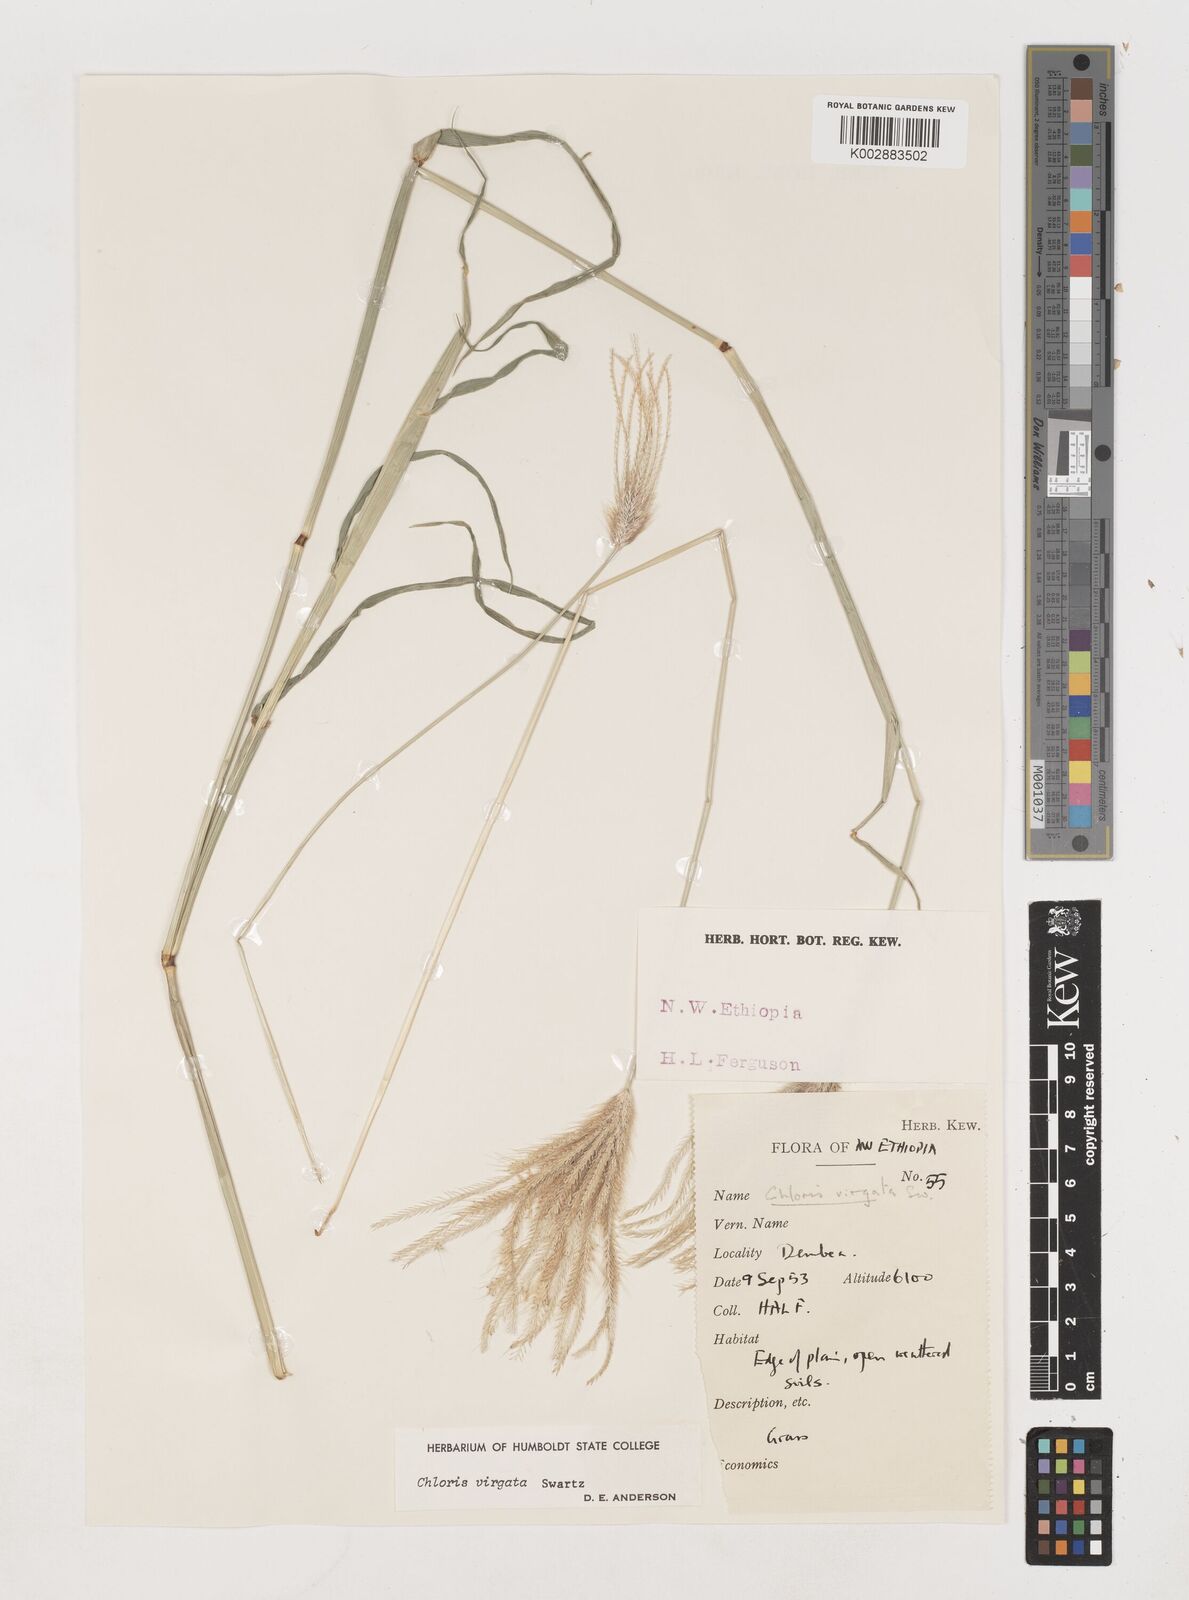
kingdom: Plantae
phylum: Tracheophyta
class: Liliopsida
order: Poales
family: Poaceae
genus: Chloris
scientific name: Chloris virgata
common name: Feathery rhodes-grass
